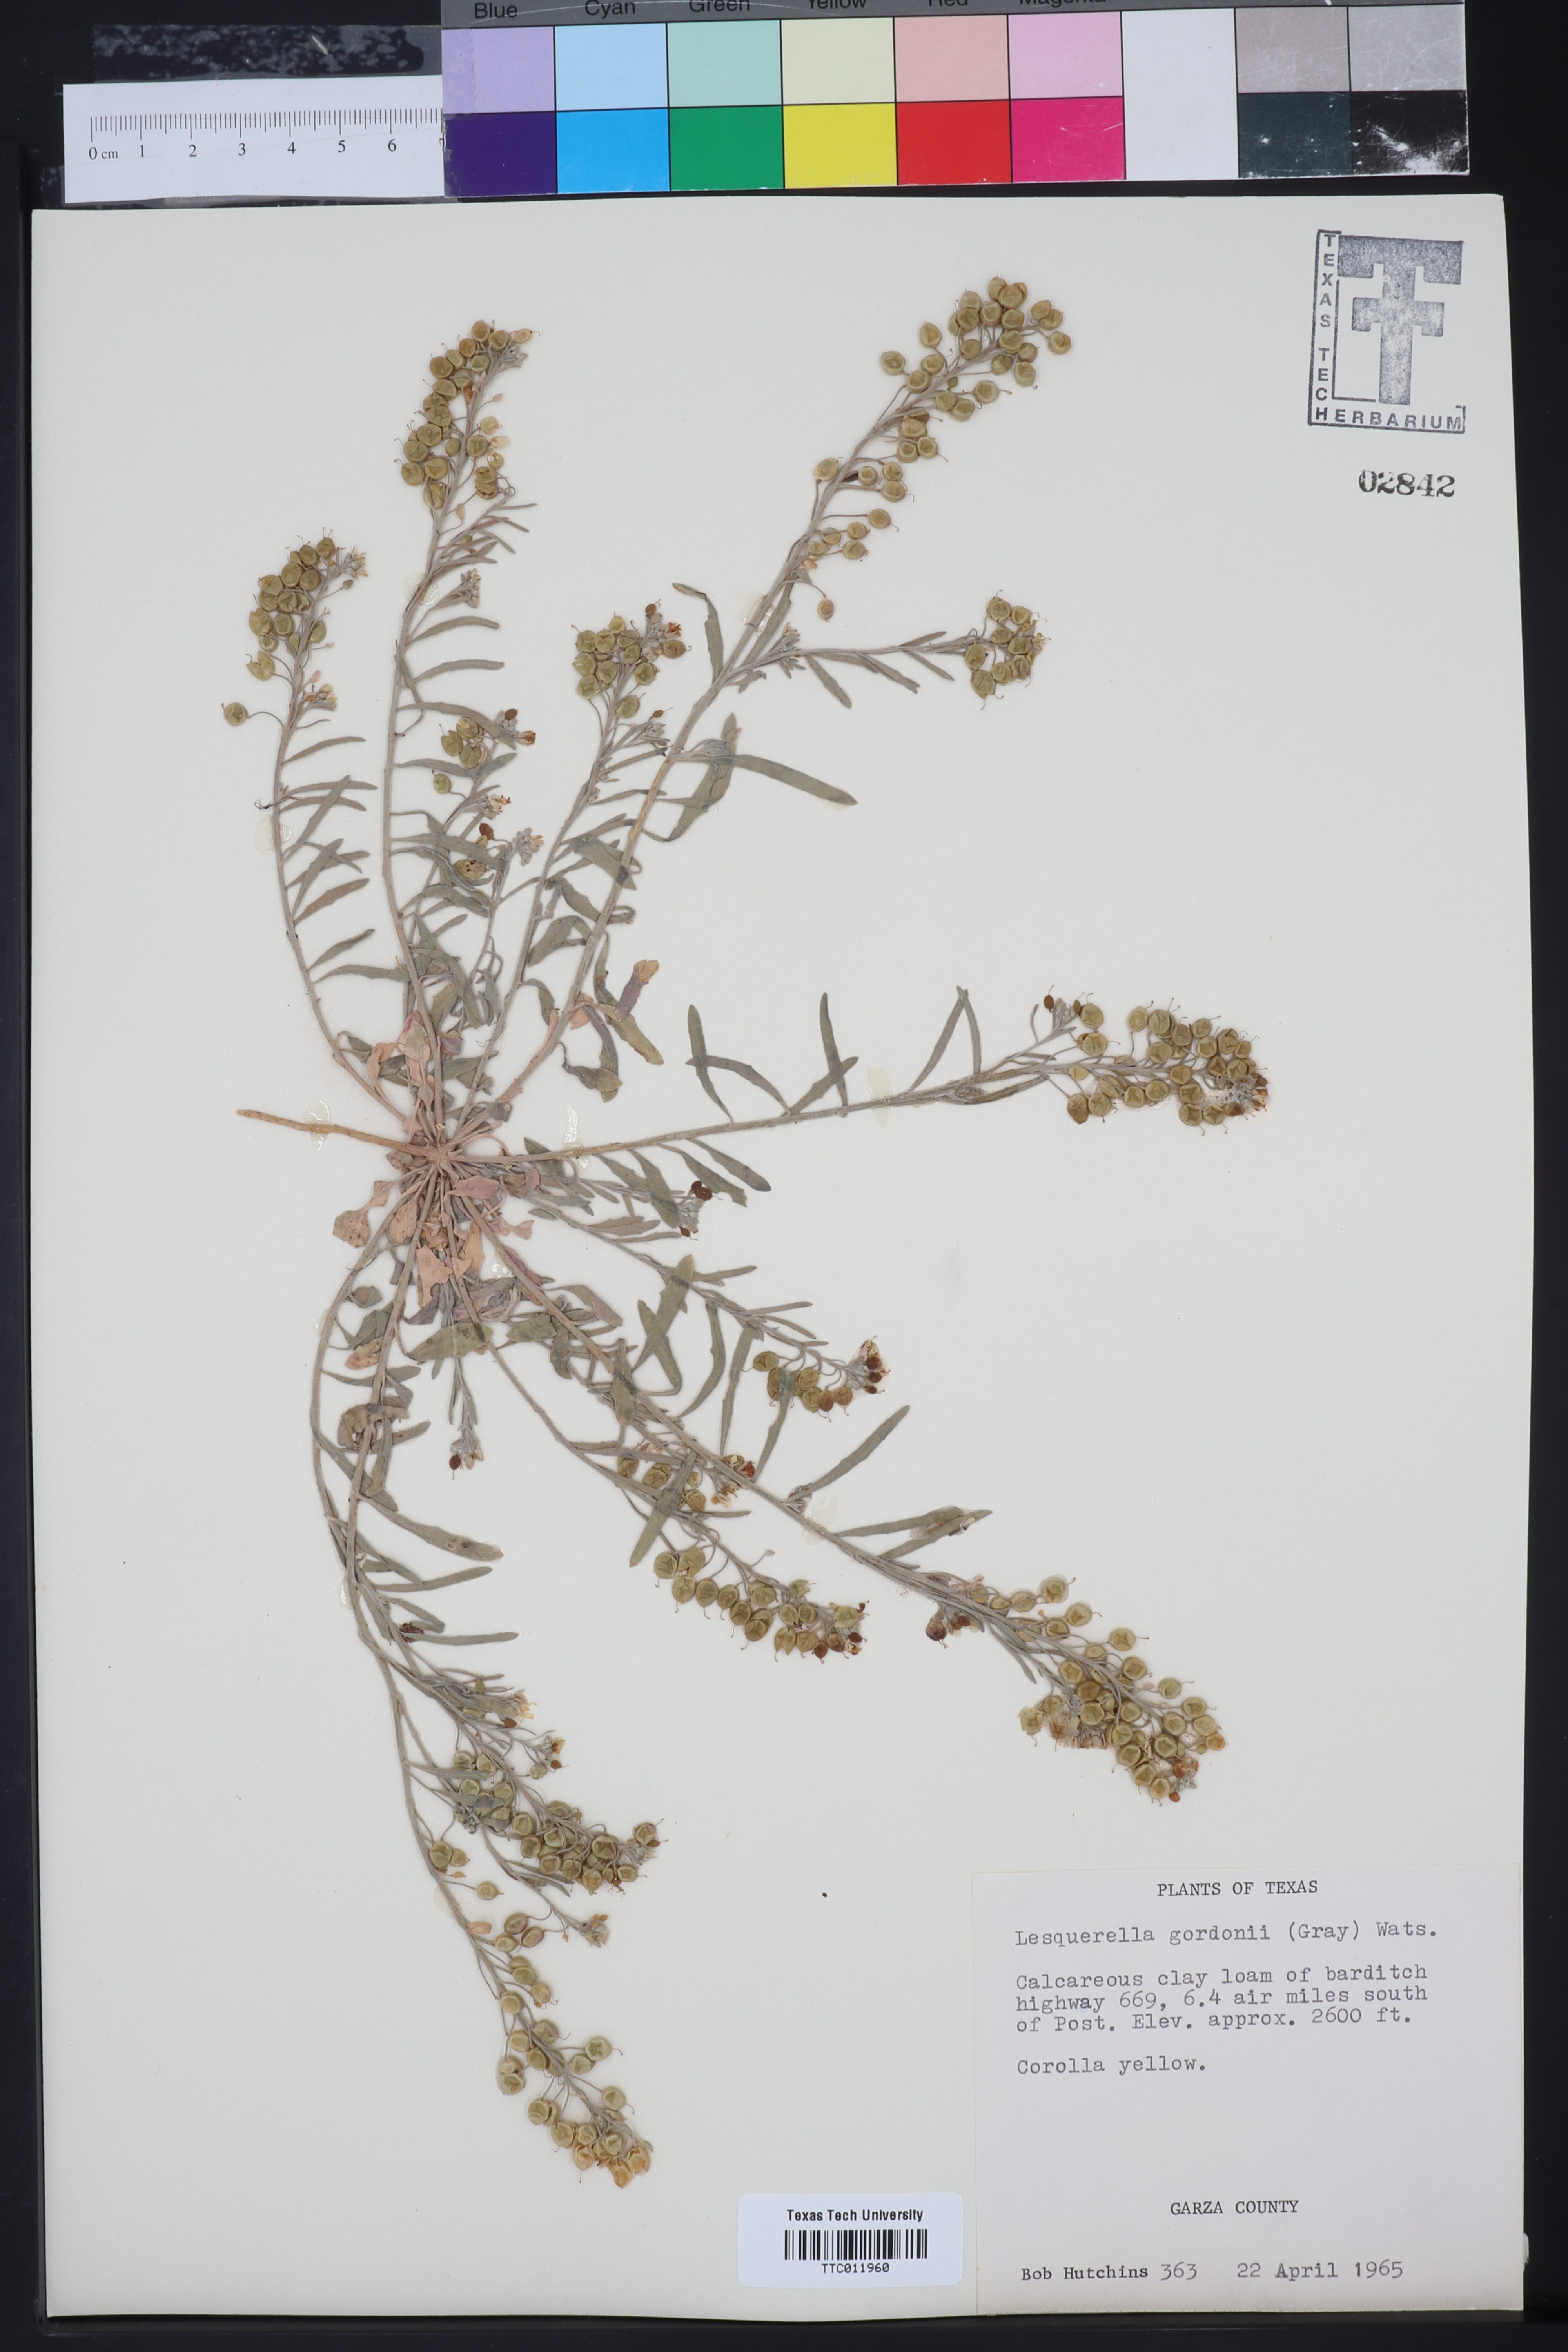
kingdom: Plantae
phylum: Tracheophyta
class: Magnoliopsida
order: Brassicales
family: Brassicaceae
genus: Physaria
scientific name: Physaria gordonii
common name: Gordon's bladderpod
